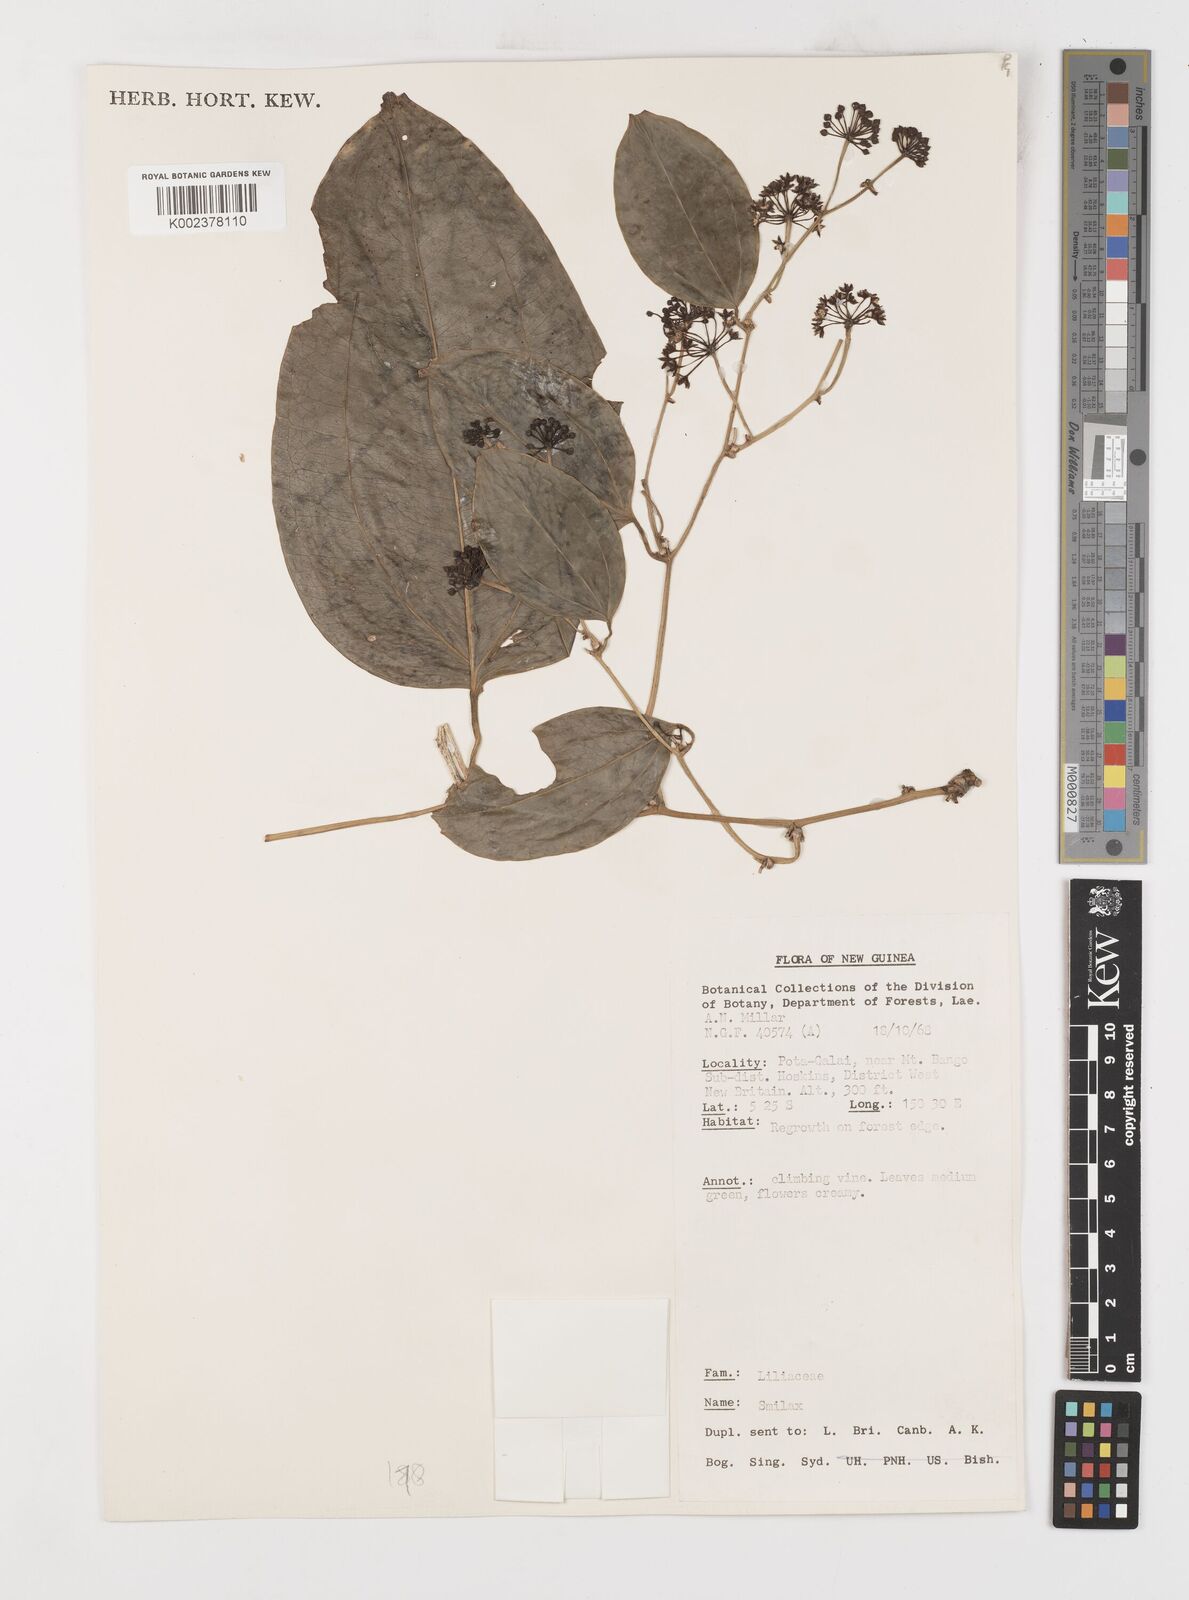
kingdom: Plantae
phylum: Tracheophyta
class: Liliopsida
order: Liliales
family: Smilacaceae
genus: Smilax
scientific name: Smilax
